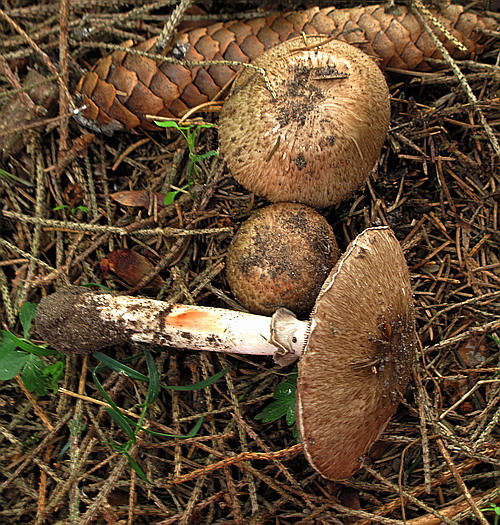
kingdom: Fungi
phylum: Basidiomycota
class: Agaricomycetes
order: Agaricales
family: Agaricaceae
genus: Agaricus
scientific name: Agaricus langei
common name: stor blod-champignon
